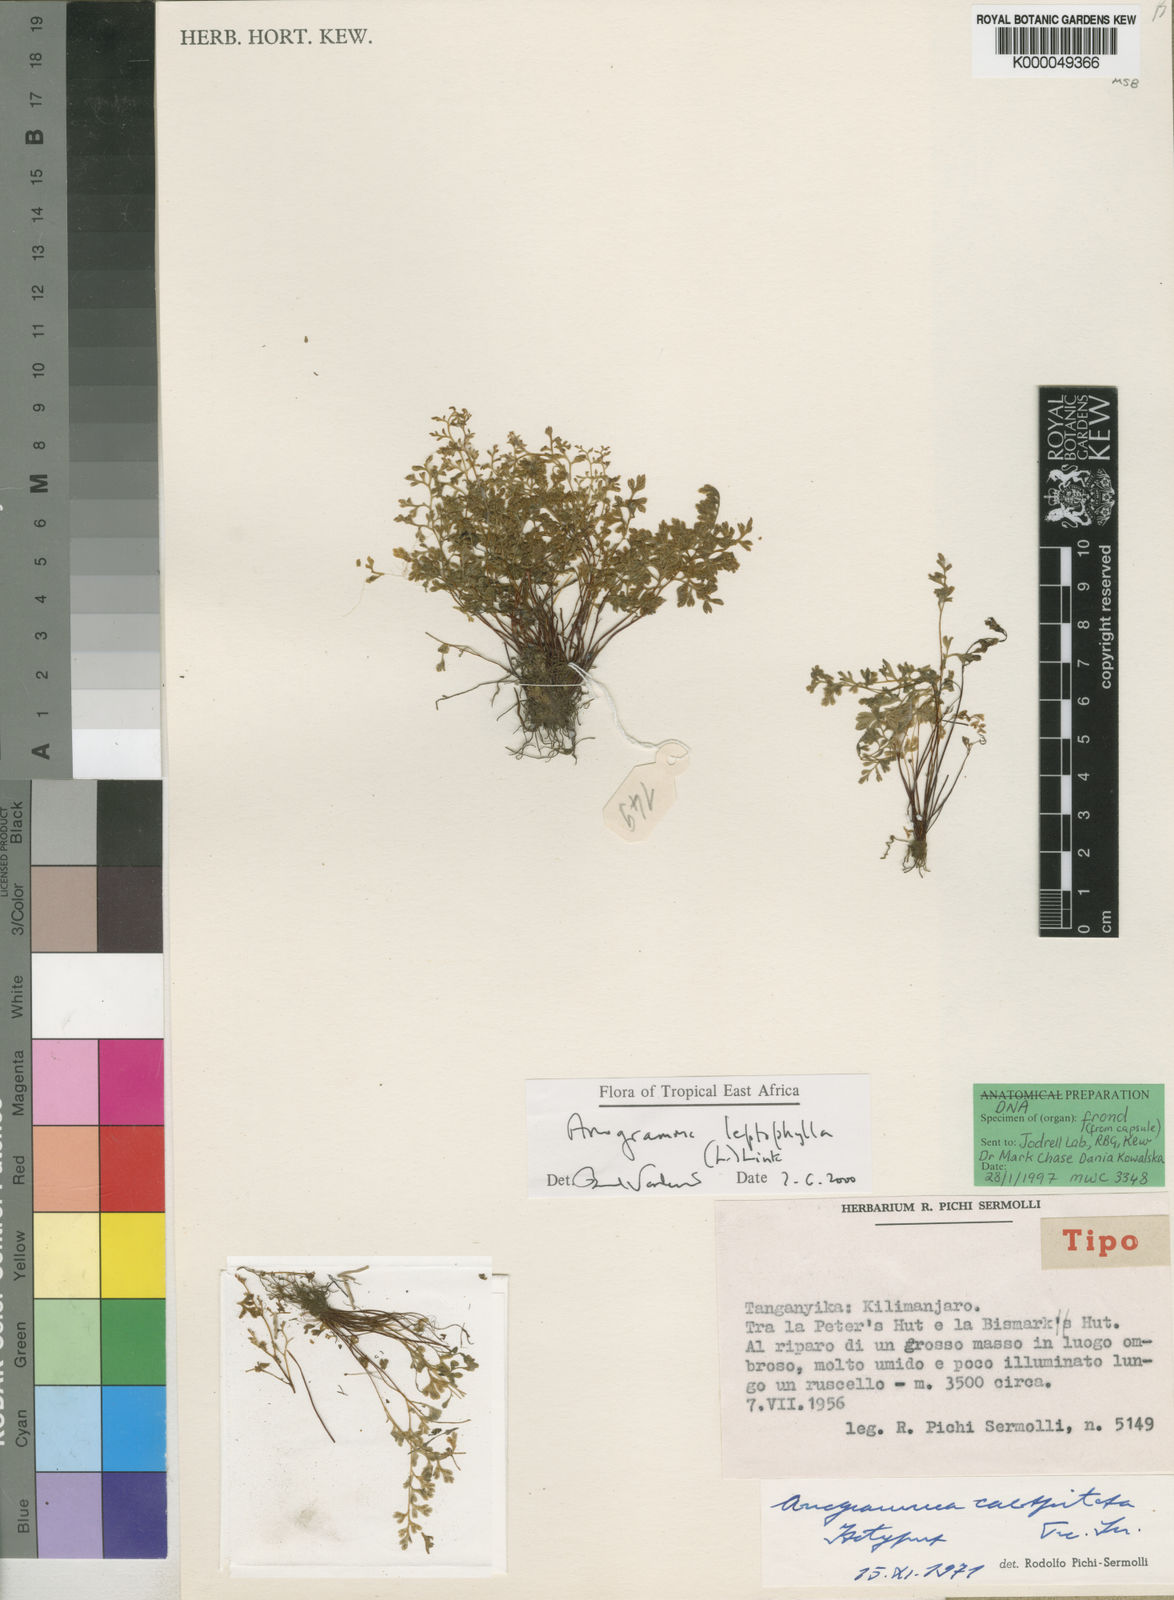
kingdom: Plantae
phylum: Tracheophyta
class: Polypodiopsida
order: Polypodiales
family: Pteridaceae
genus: Anogramma
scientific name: Anogramma leptophylla
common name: Jersey fern
